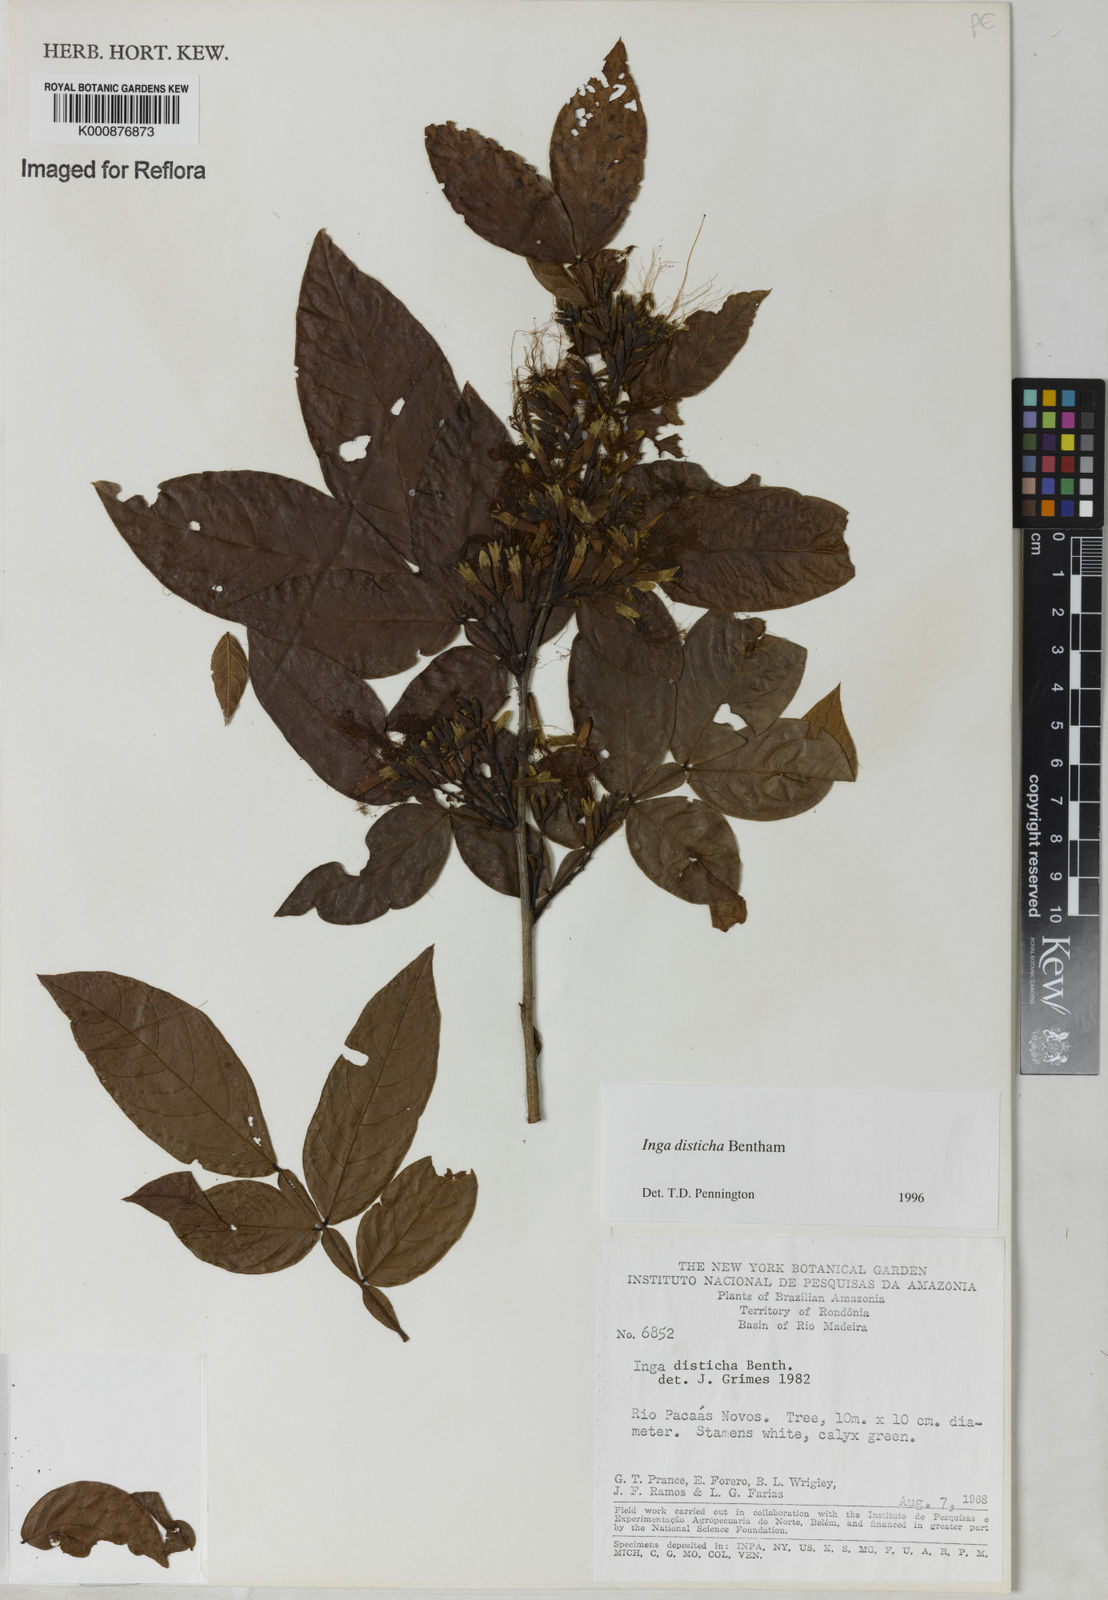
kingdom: Plantae
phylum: Tracheophyta
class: Magnoliopsida
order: Fabales
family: Fabaceae
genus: Inga
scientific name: Inga disticha
